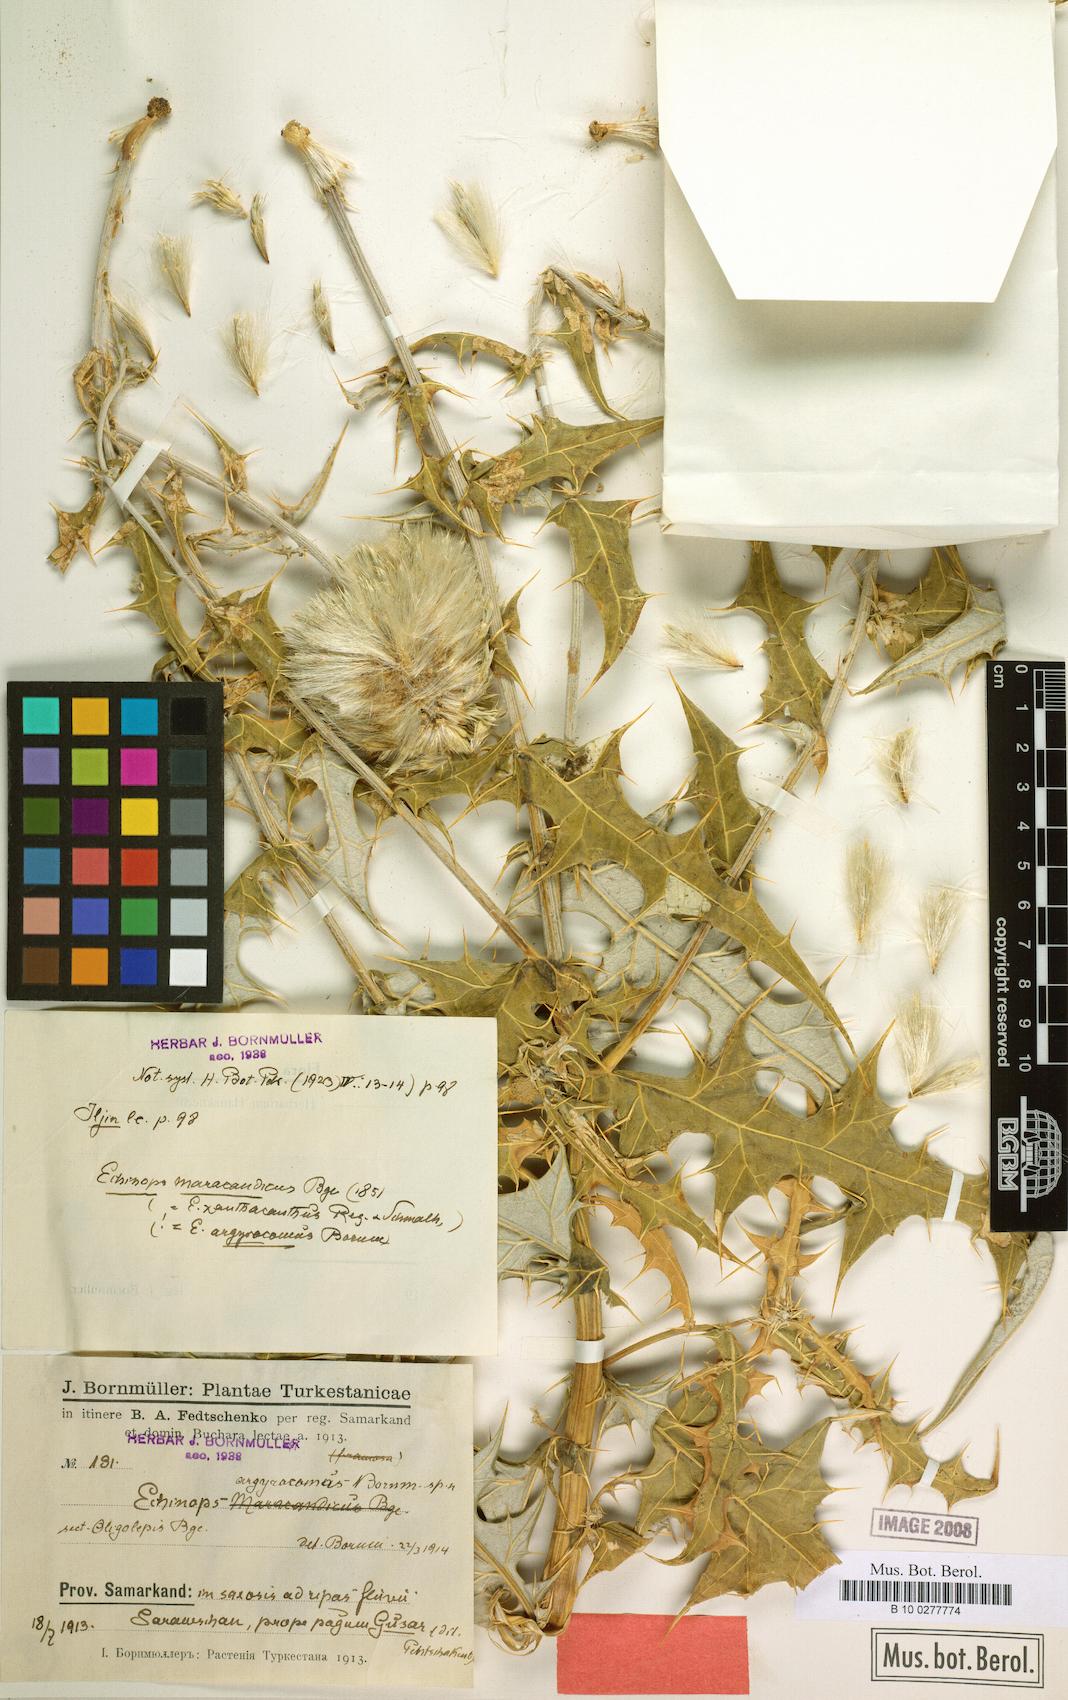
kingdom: Plantae
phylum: Tracheophyta
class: Magnoliopsida
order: Asterales
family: Asteraceae
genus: Echinops
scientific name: Echinops maracandicus
